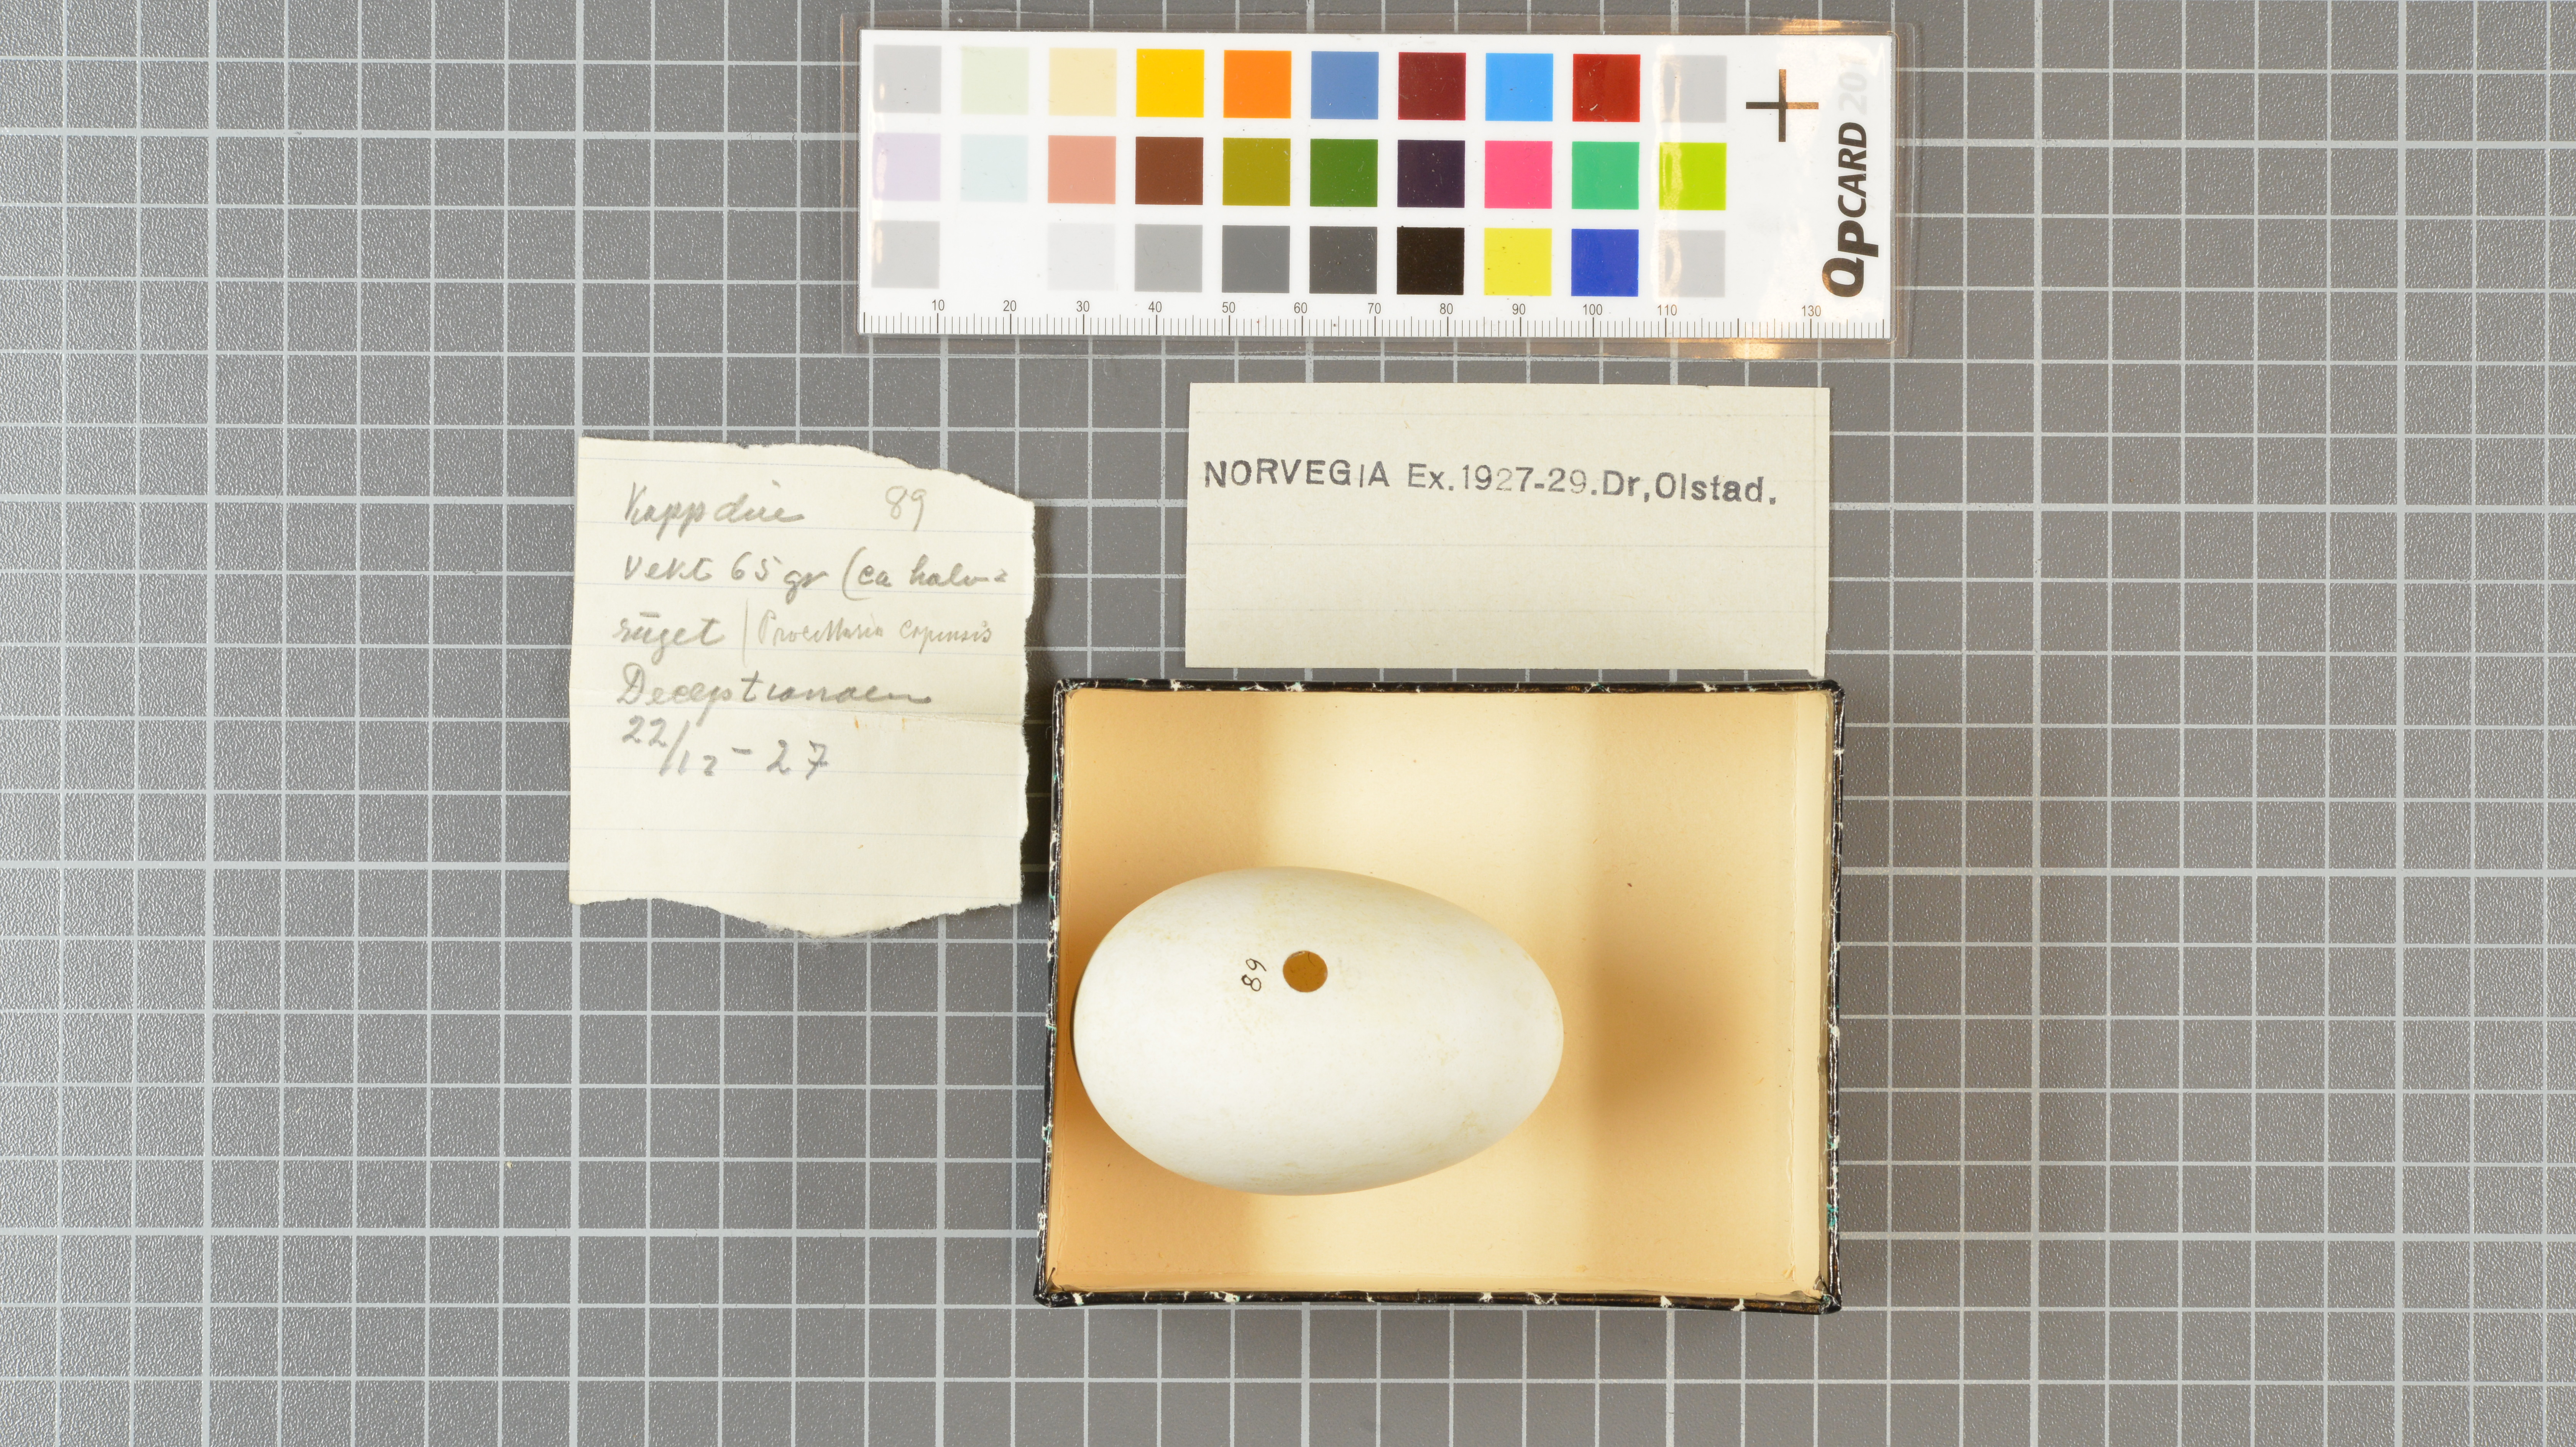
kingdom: Animalia
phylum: Chordata
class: Aves
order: Procellariiformes
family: Procellariidae
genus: Daption
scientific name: Daption capense
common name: Cape petrel
